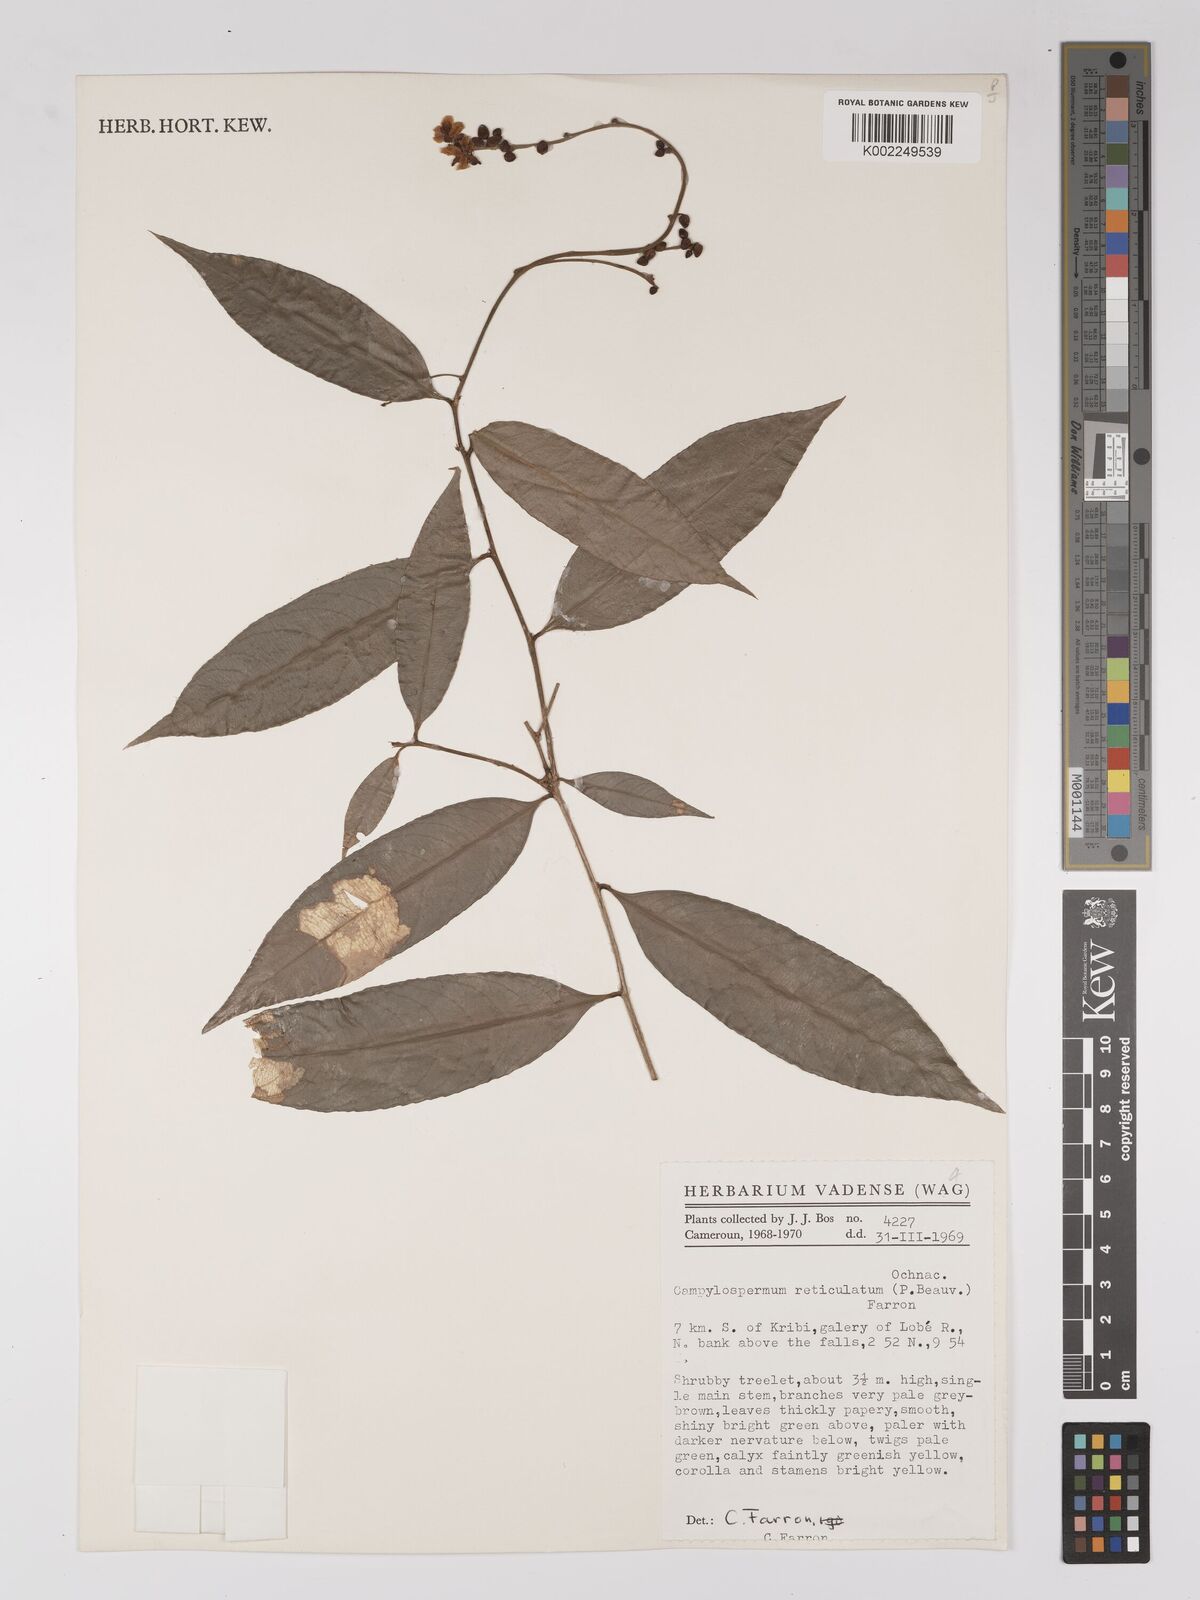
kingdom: Plantae
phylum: Tracheophyta
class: Magnoliopsida
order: Malpighiales
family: Ochnaceae
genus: Campylospermum
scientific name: Campylospermum reticulatum
